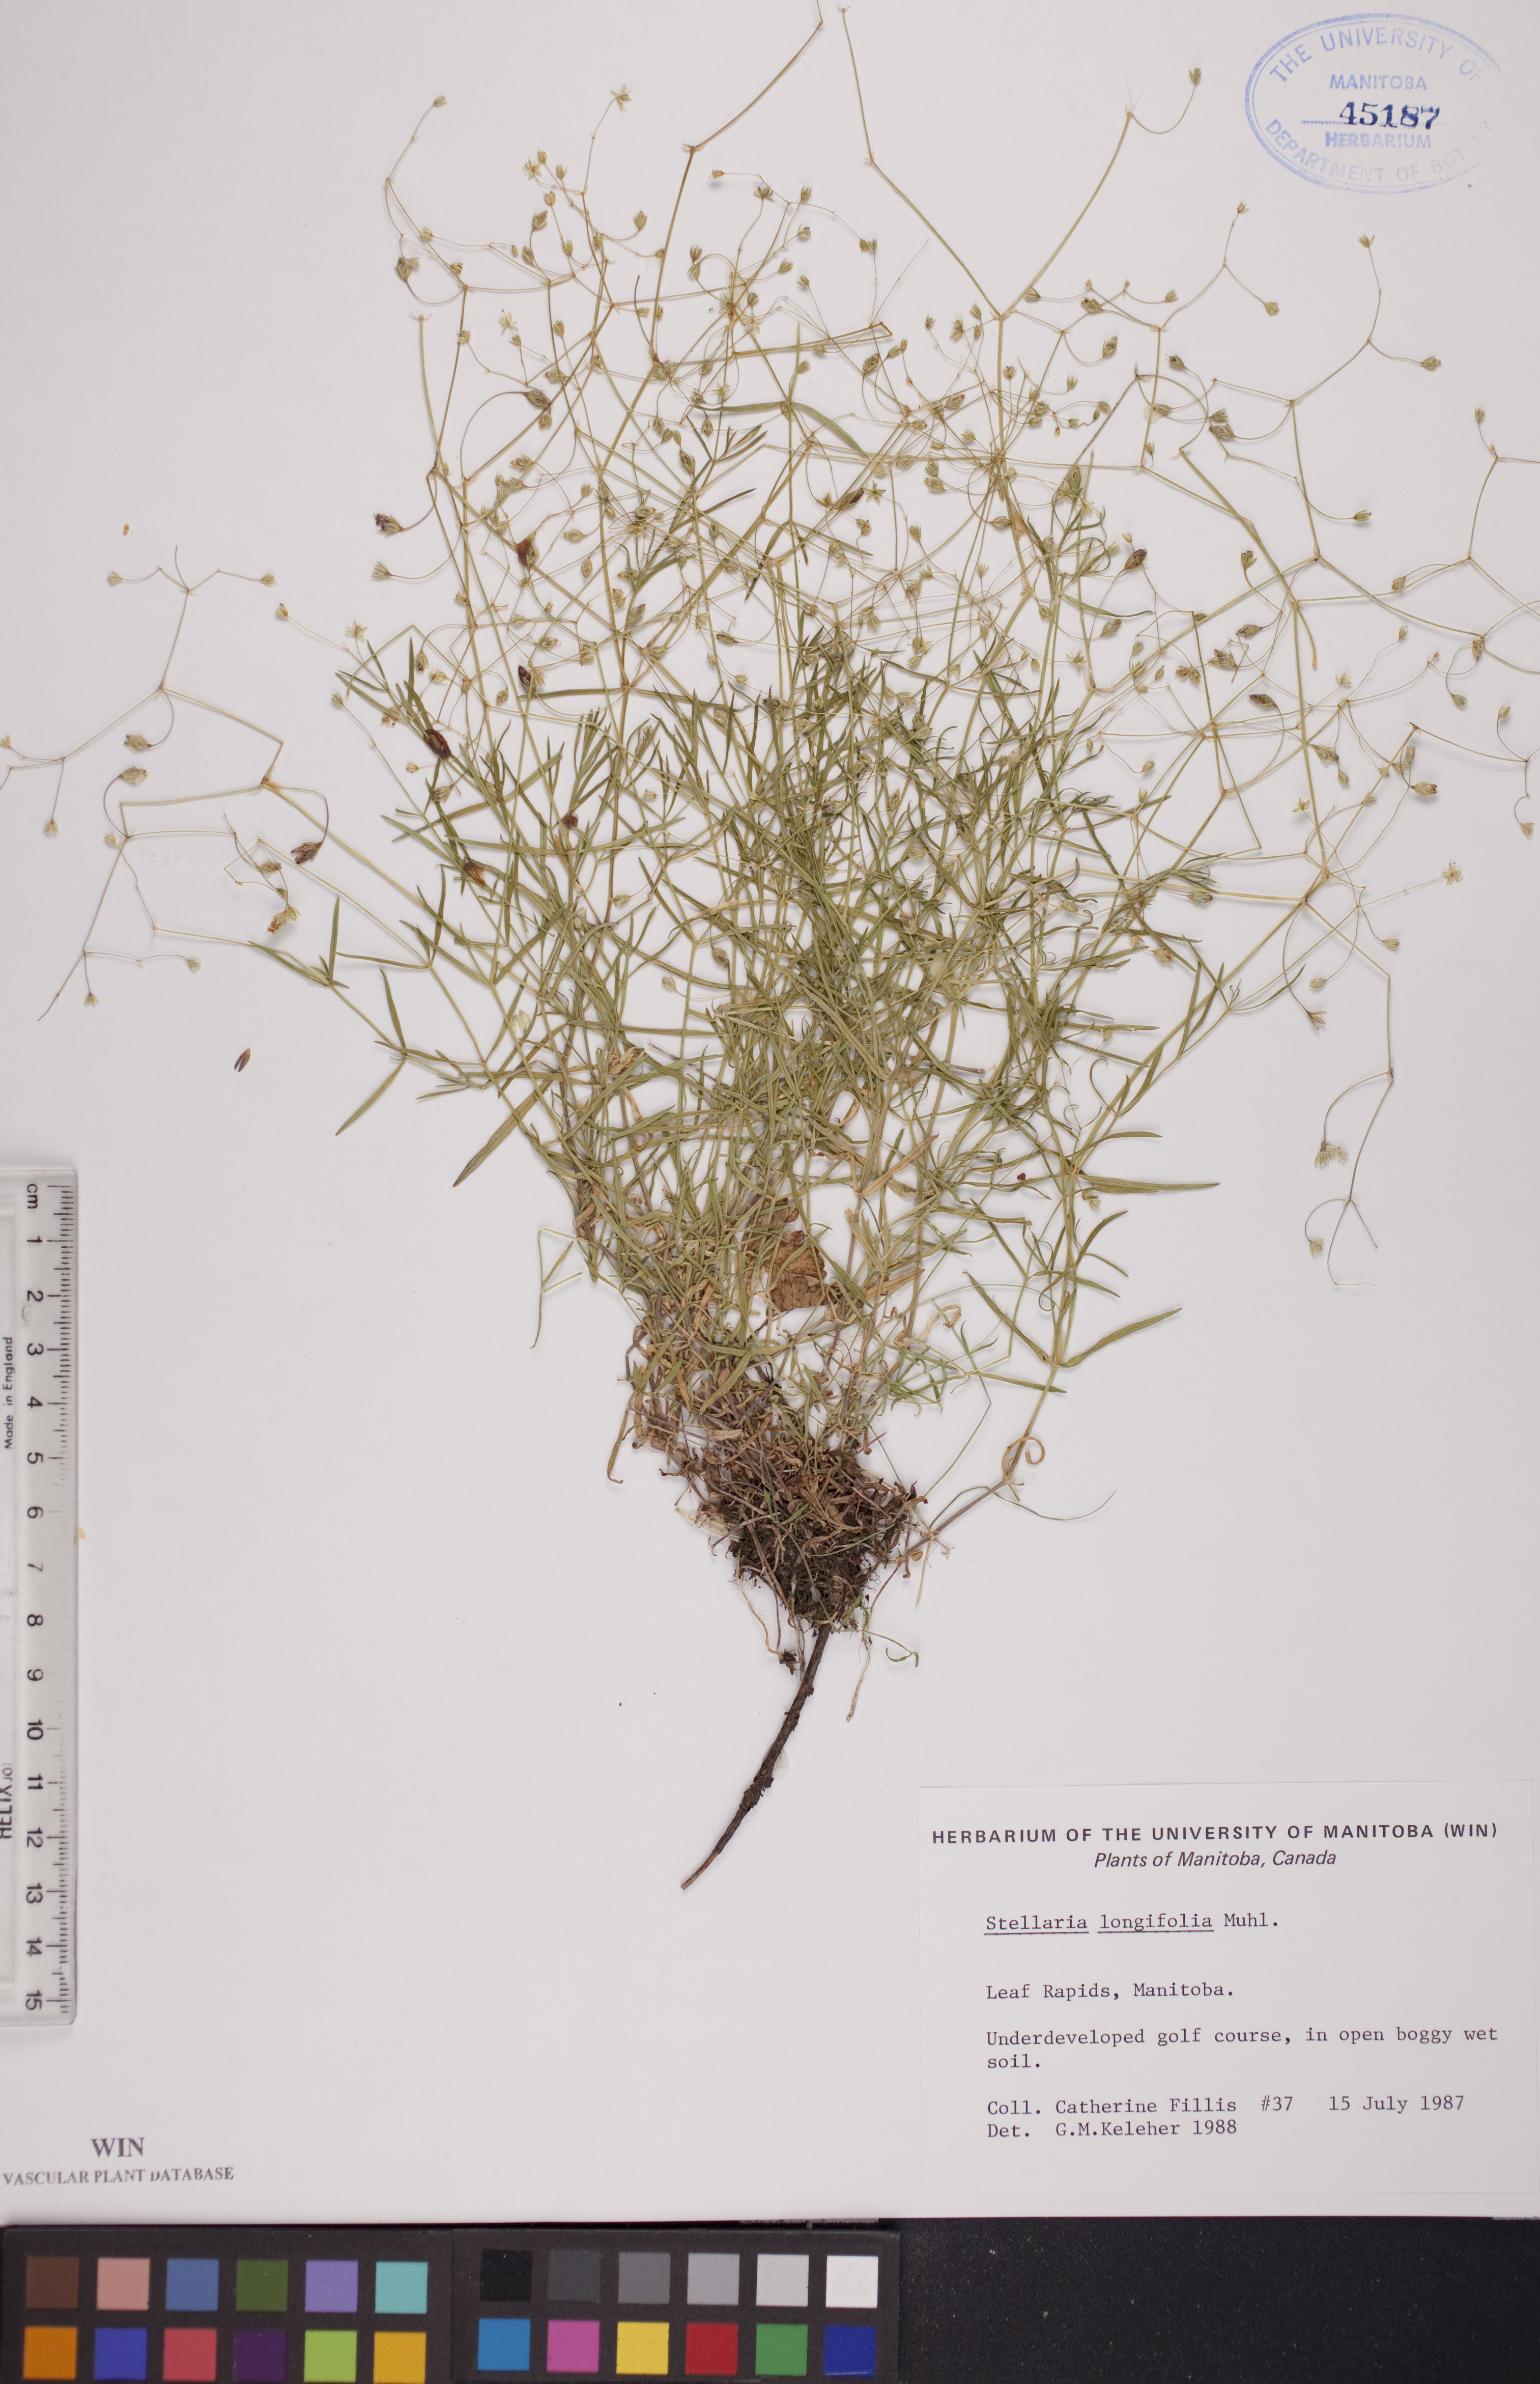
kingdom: Plantae
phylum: Tracheophyta
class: Magnoliopsida
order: Caryophyllales
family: Caryophyllaceae
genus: Stellaria
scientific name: Stellaria longifolia
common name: Long-leaved chickweed
